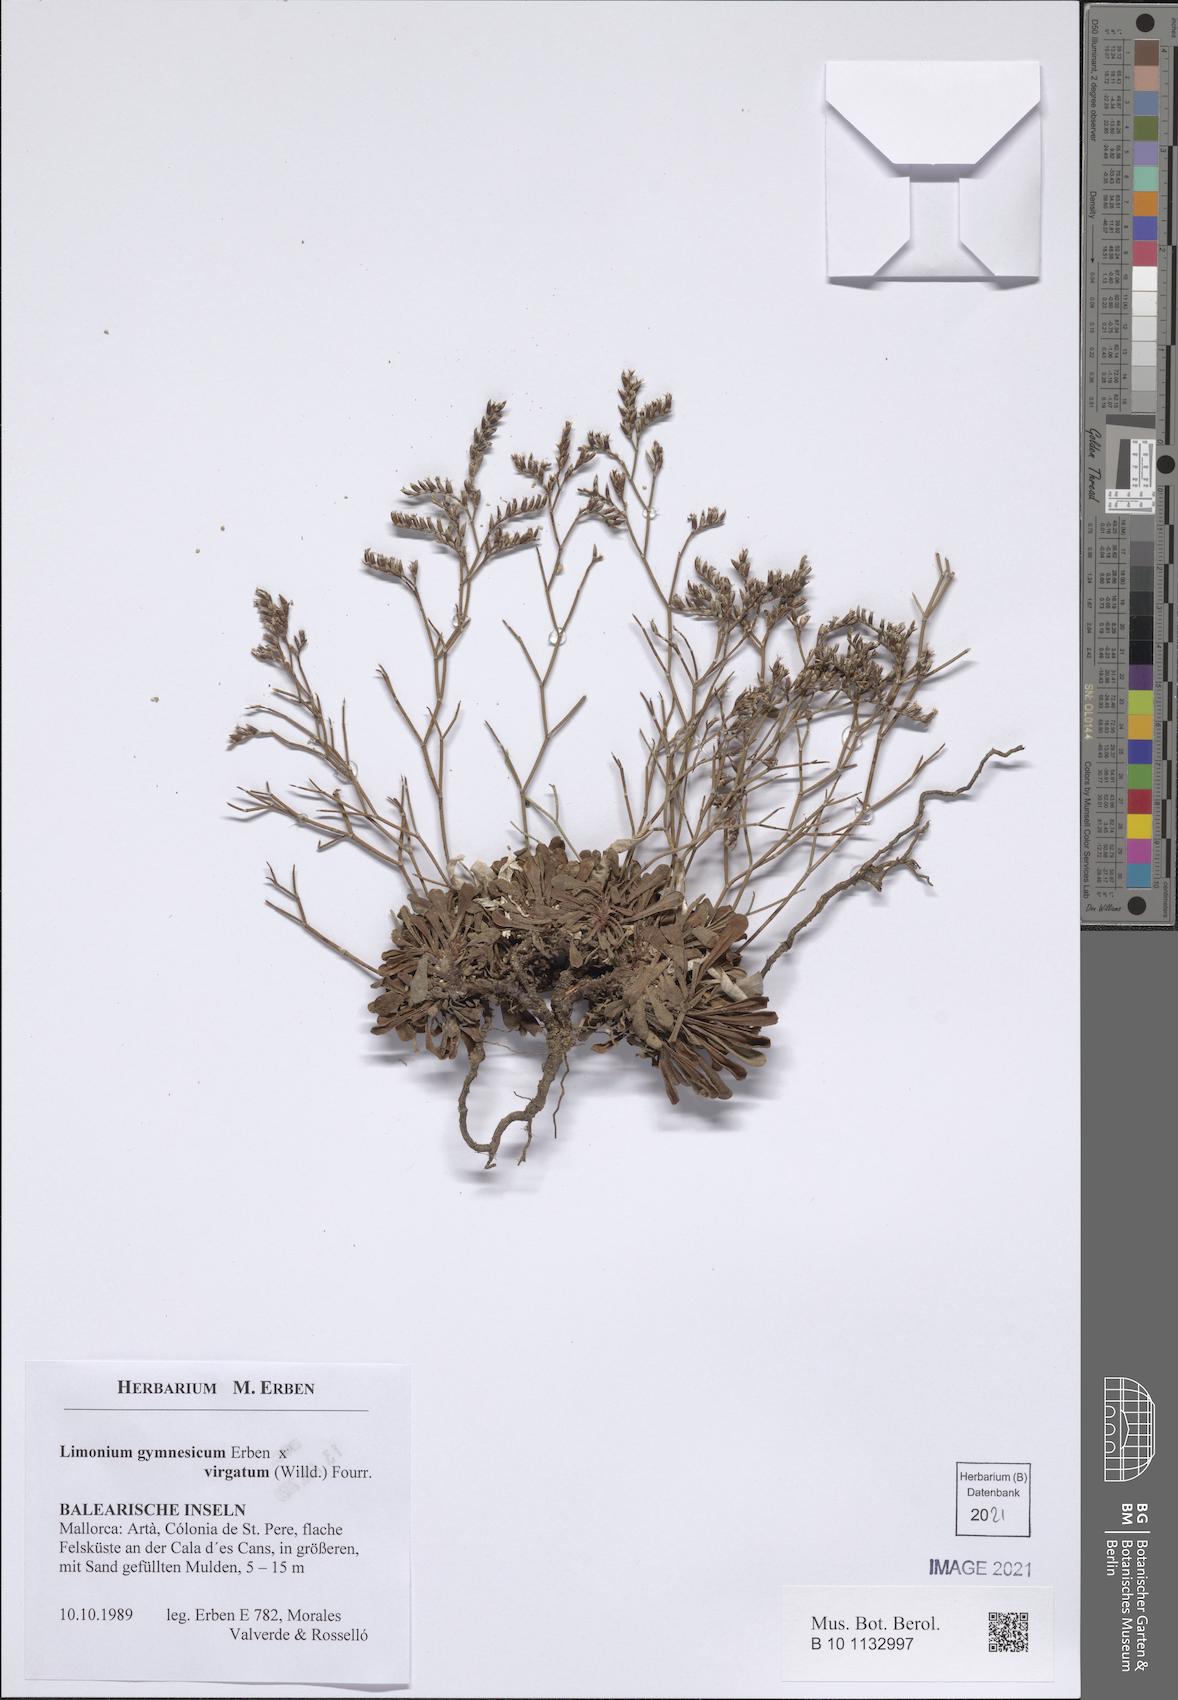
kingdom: Plantae
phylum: Tracheophyta
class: Magnoliopsida
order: Caryophyllales
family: Plumbaginaceae
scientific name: Plumbaginaceae
